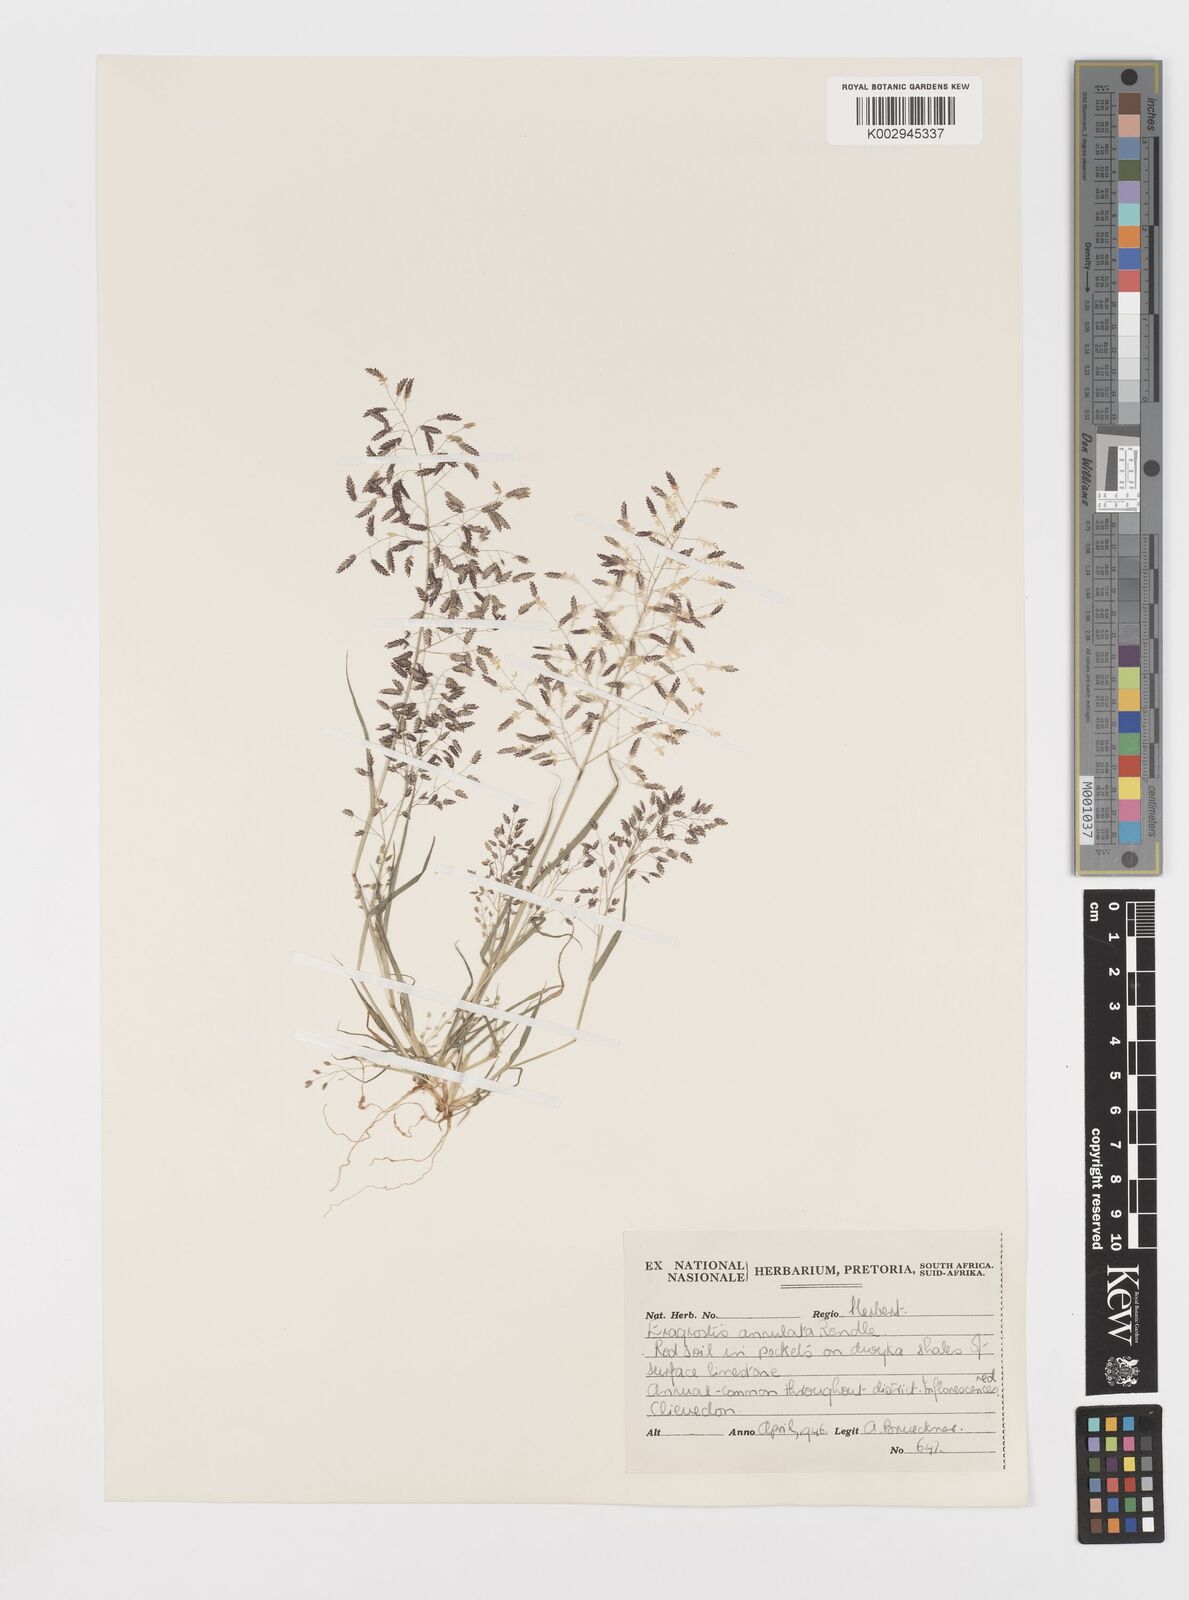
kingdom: Plantae
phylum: Tracheophyta
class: Liliopsida
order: Poales
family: Poaceae
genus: Eragrostis
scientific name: Eragrostis annulata
